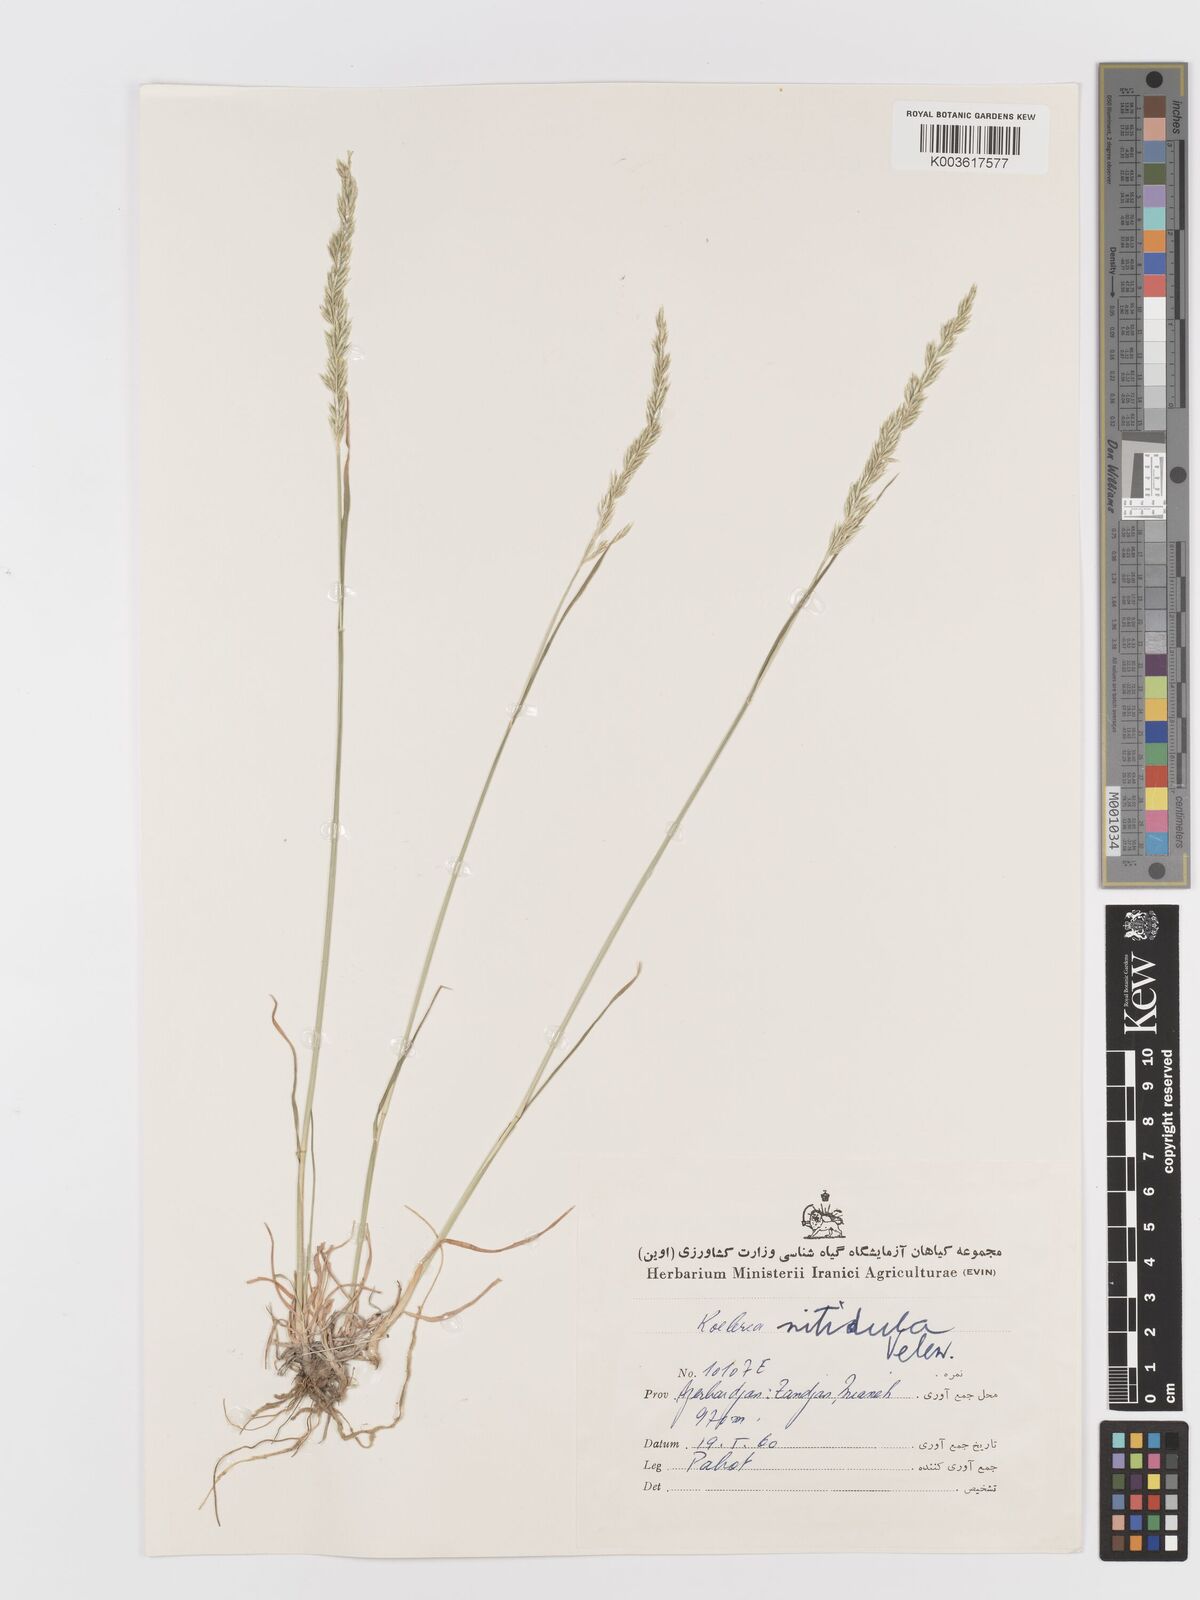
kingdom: Plantae
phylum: Tracheophyta
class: Liliopsida
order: Poales
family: Poaceae
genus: Koeleria
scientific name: Koeleria nitidula
